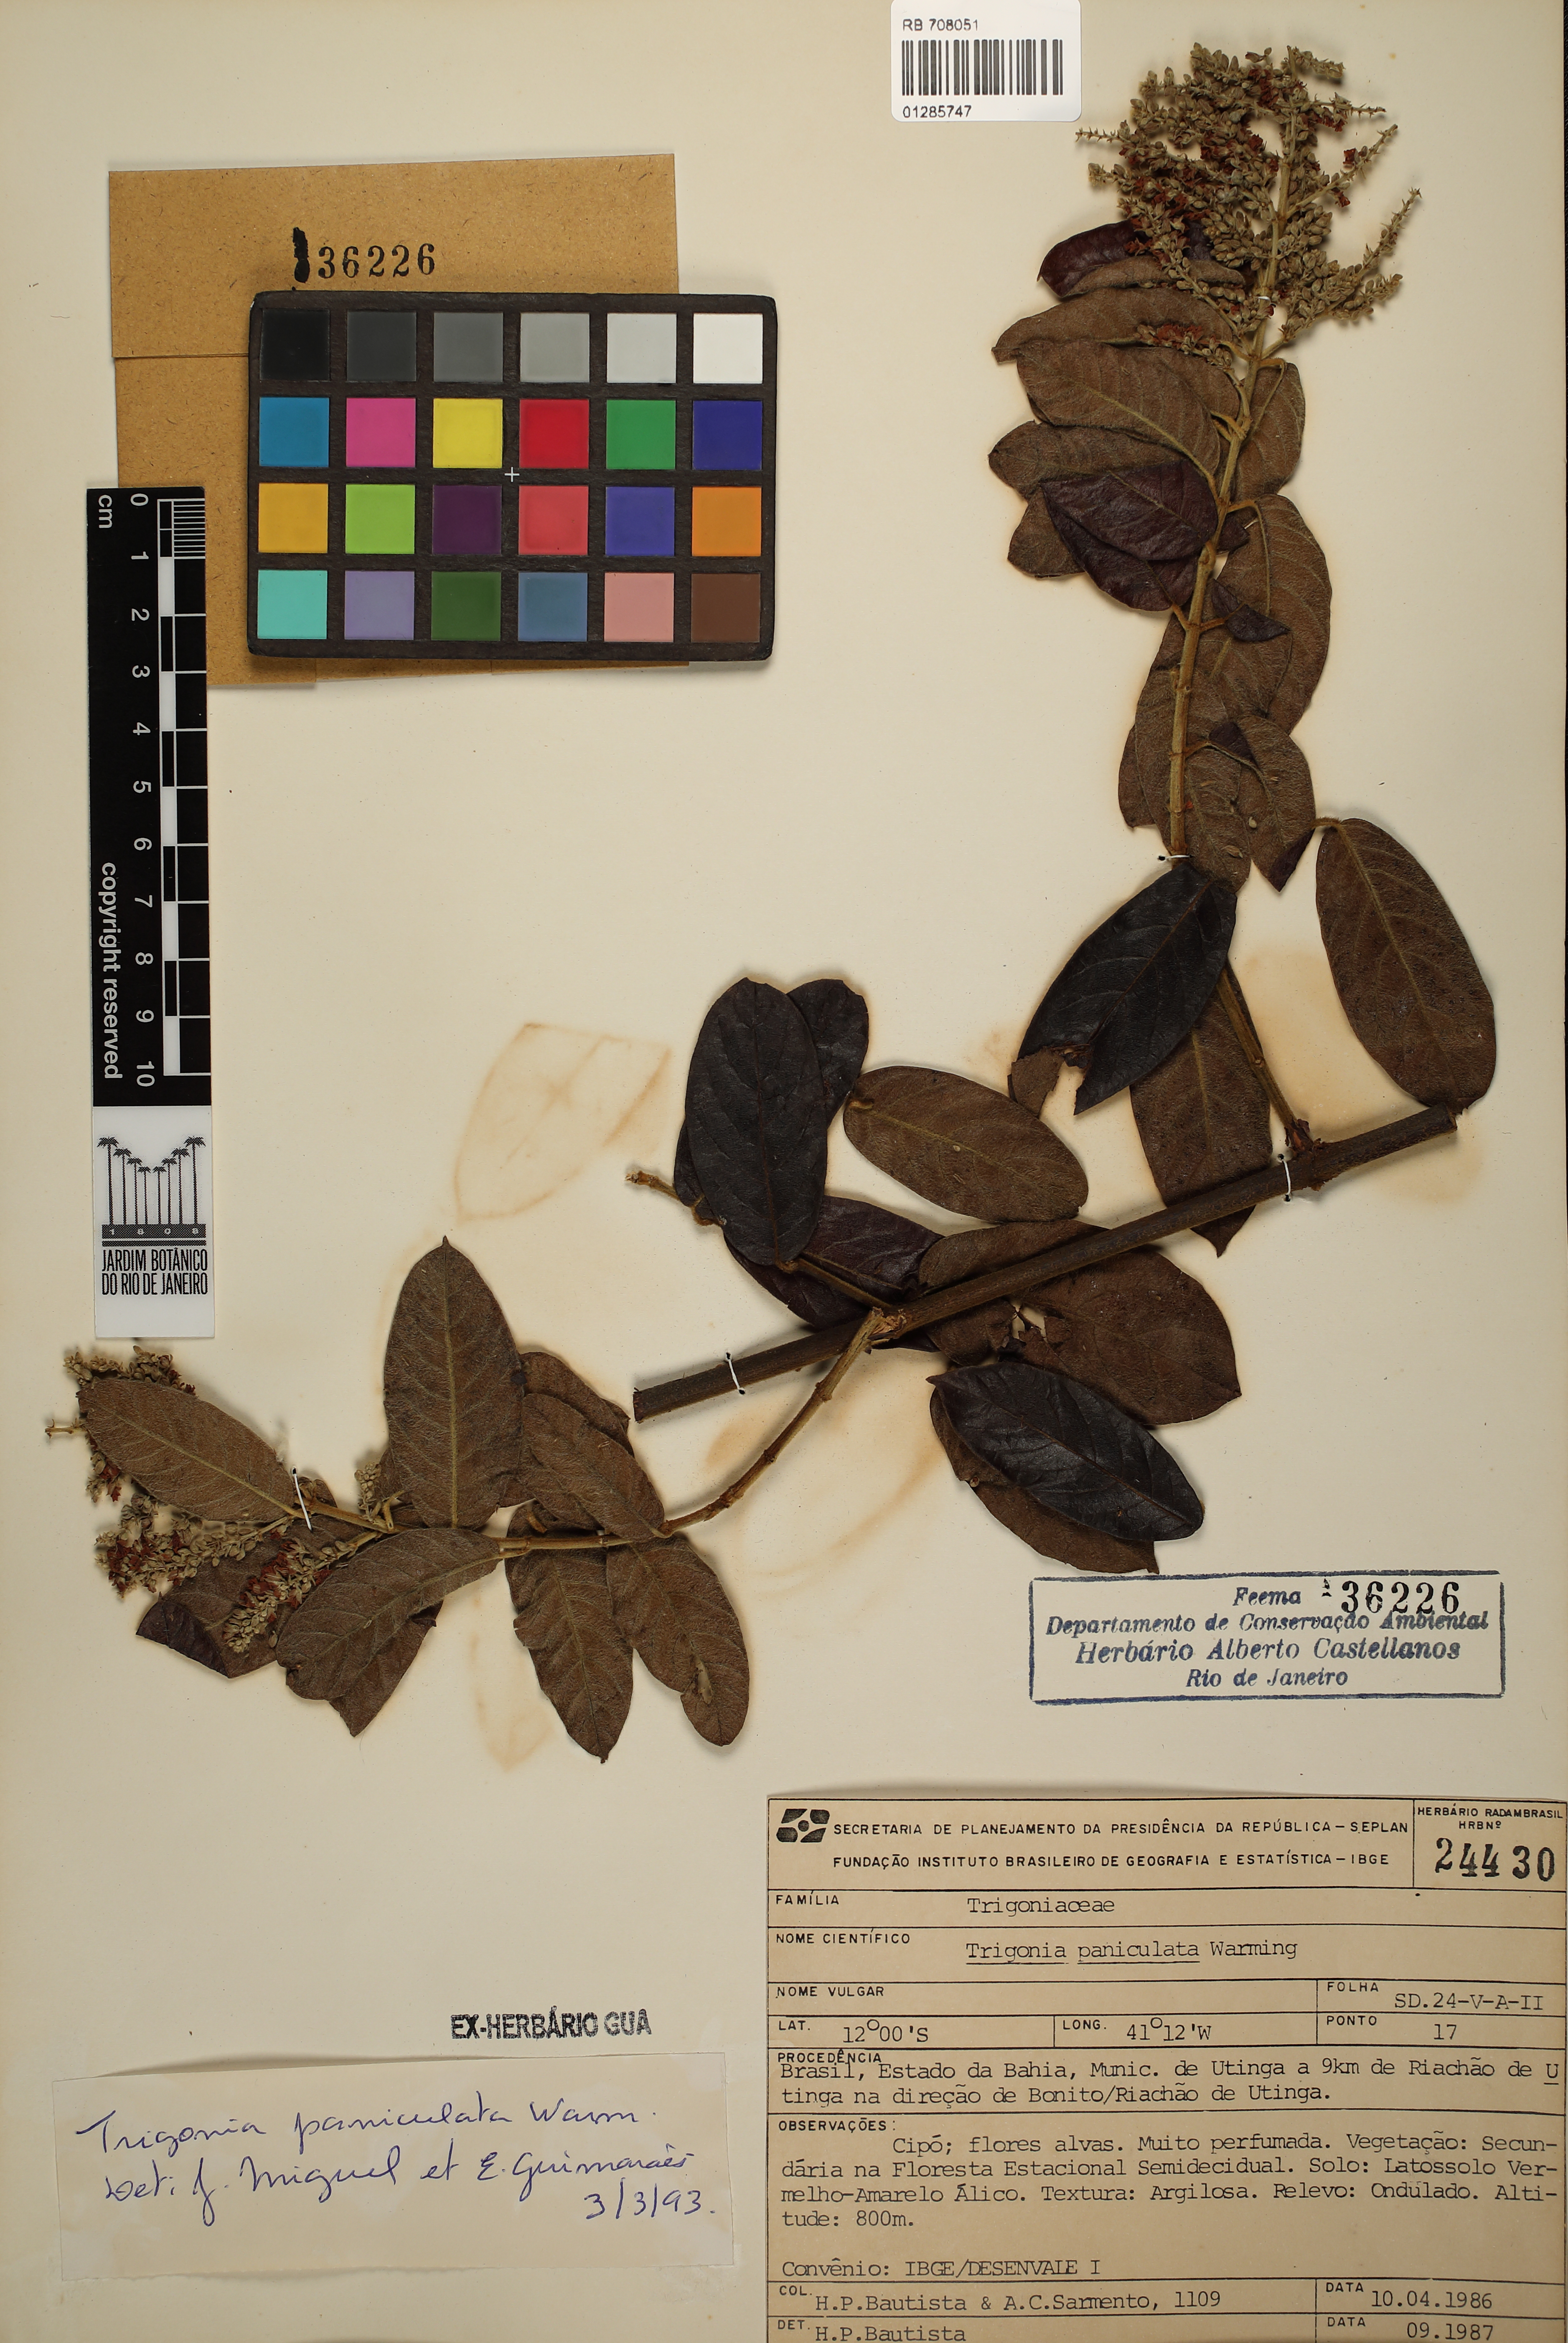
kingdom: Plantae
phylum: Tracheophyta
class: Magnoliopsida
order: Malpighiales
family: Trigoniaceae
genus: Trigonia
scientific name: Trigonia paniculata
